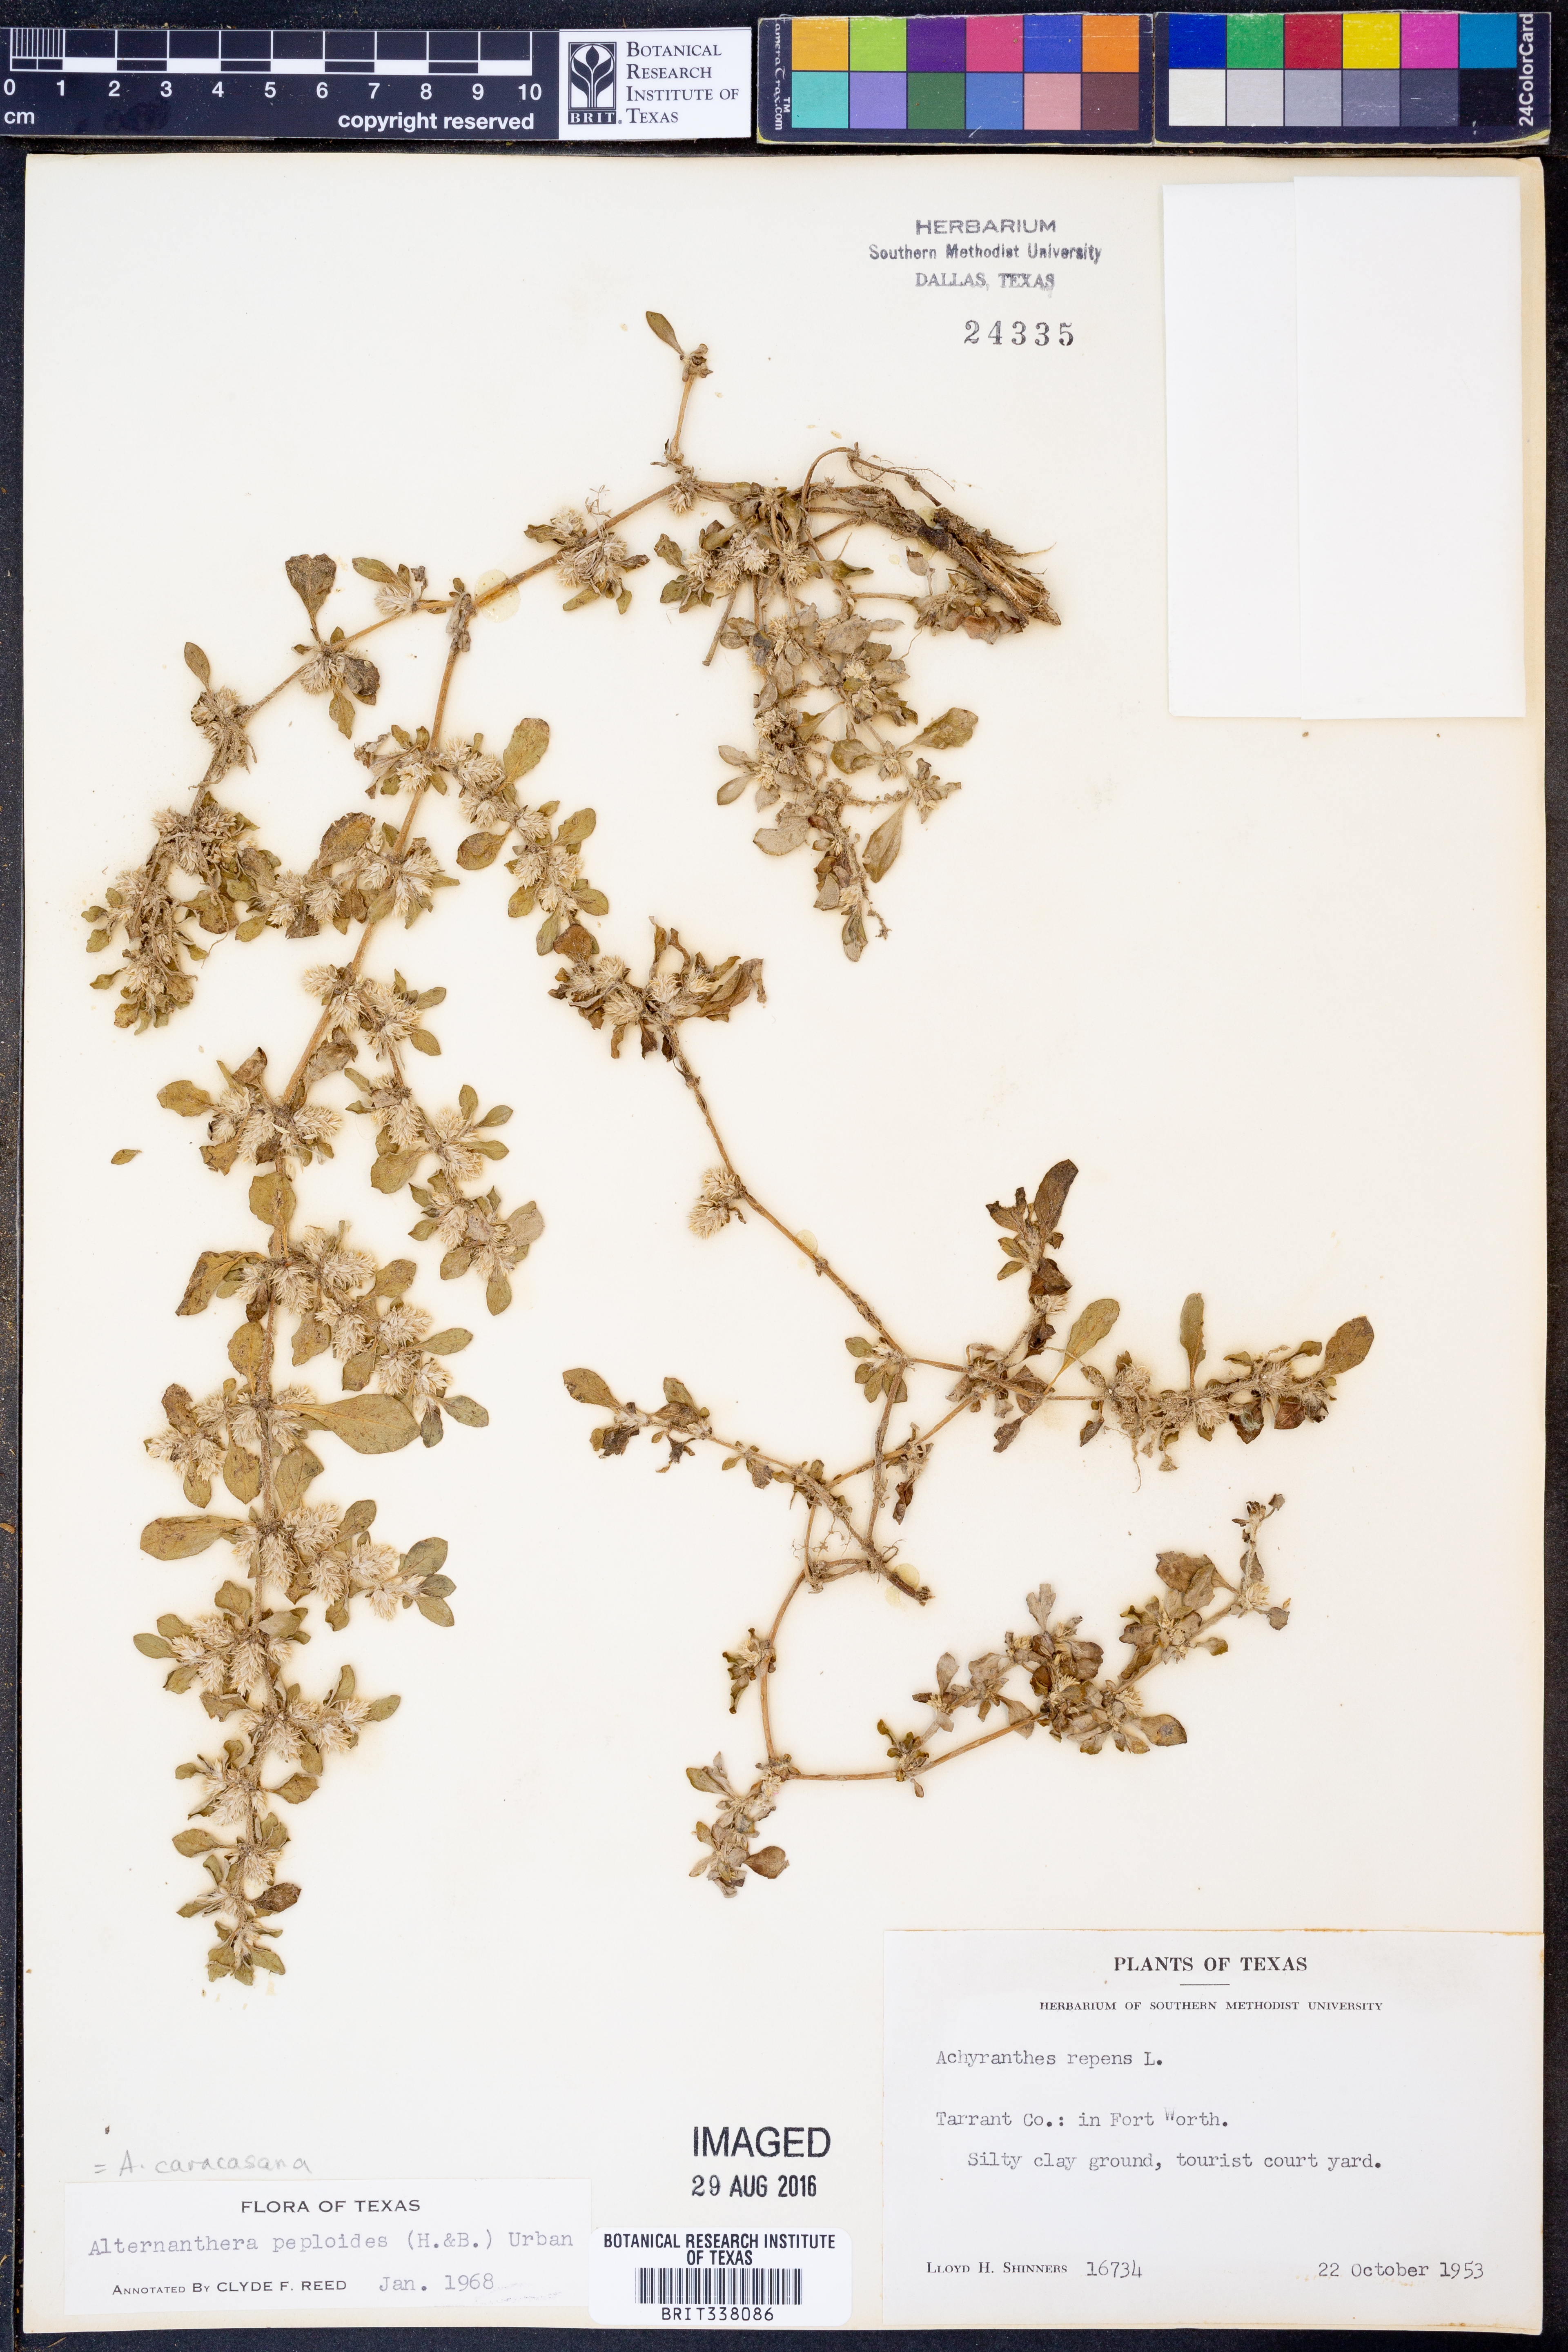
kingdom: Plantae
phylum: Tracheophyta
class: Magnoliopsida
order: Caryophyllales
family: Amaranthaceae
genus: Alternanthera
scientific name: Alternanthera caracasana
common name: Washerwoman
